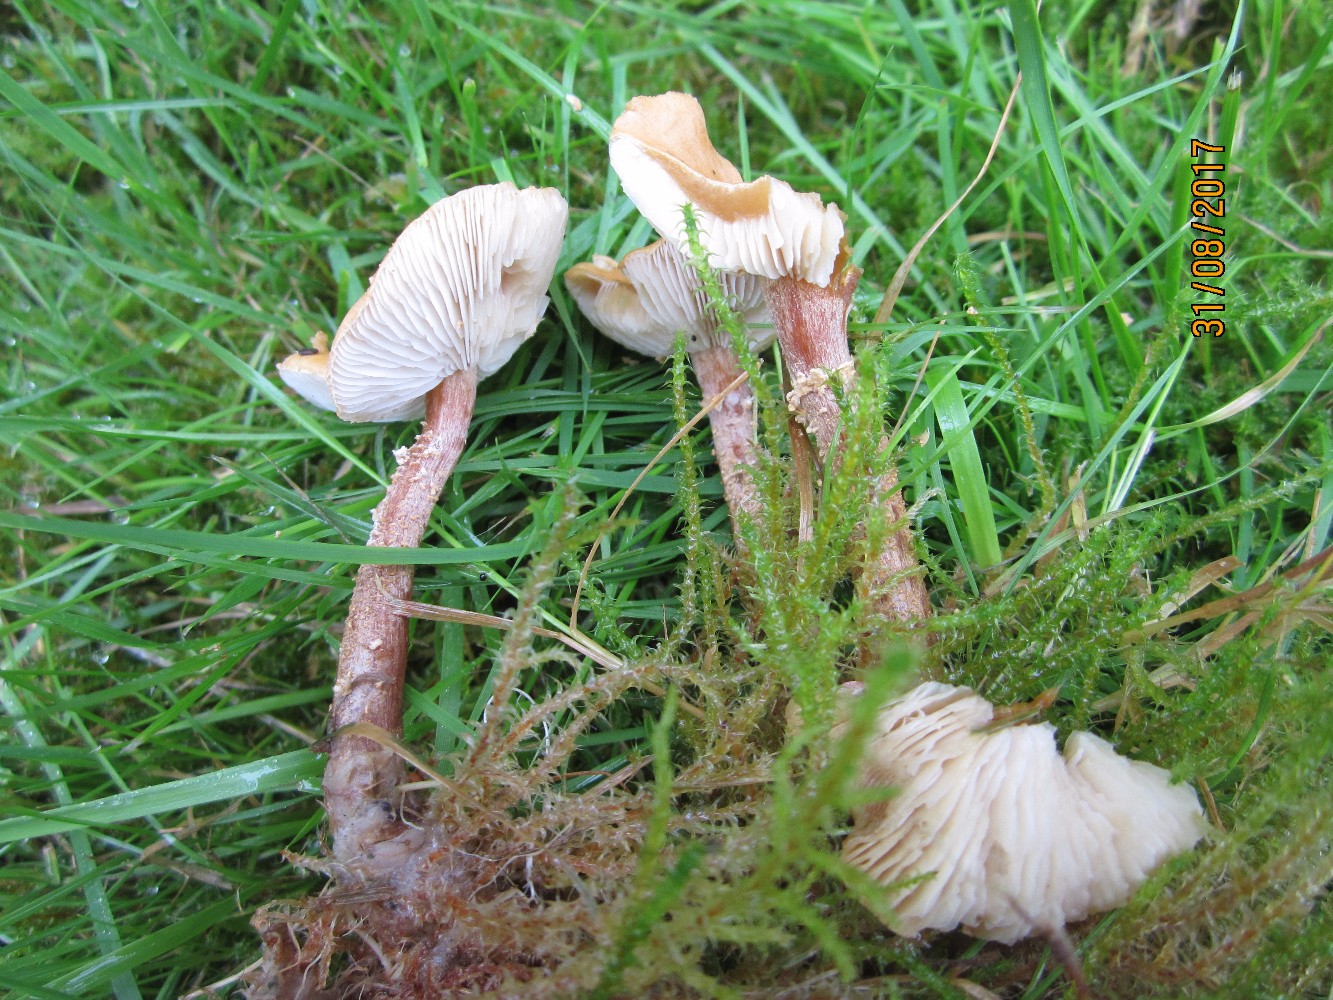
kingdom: Fungi
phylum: Basidiomycota
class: Agaricomycetes
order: Agaricales
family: Tricholomataceae
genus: Cystoderma
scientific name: Cystoderma amianthinum
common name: okkergul grynhat
